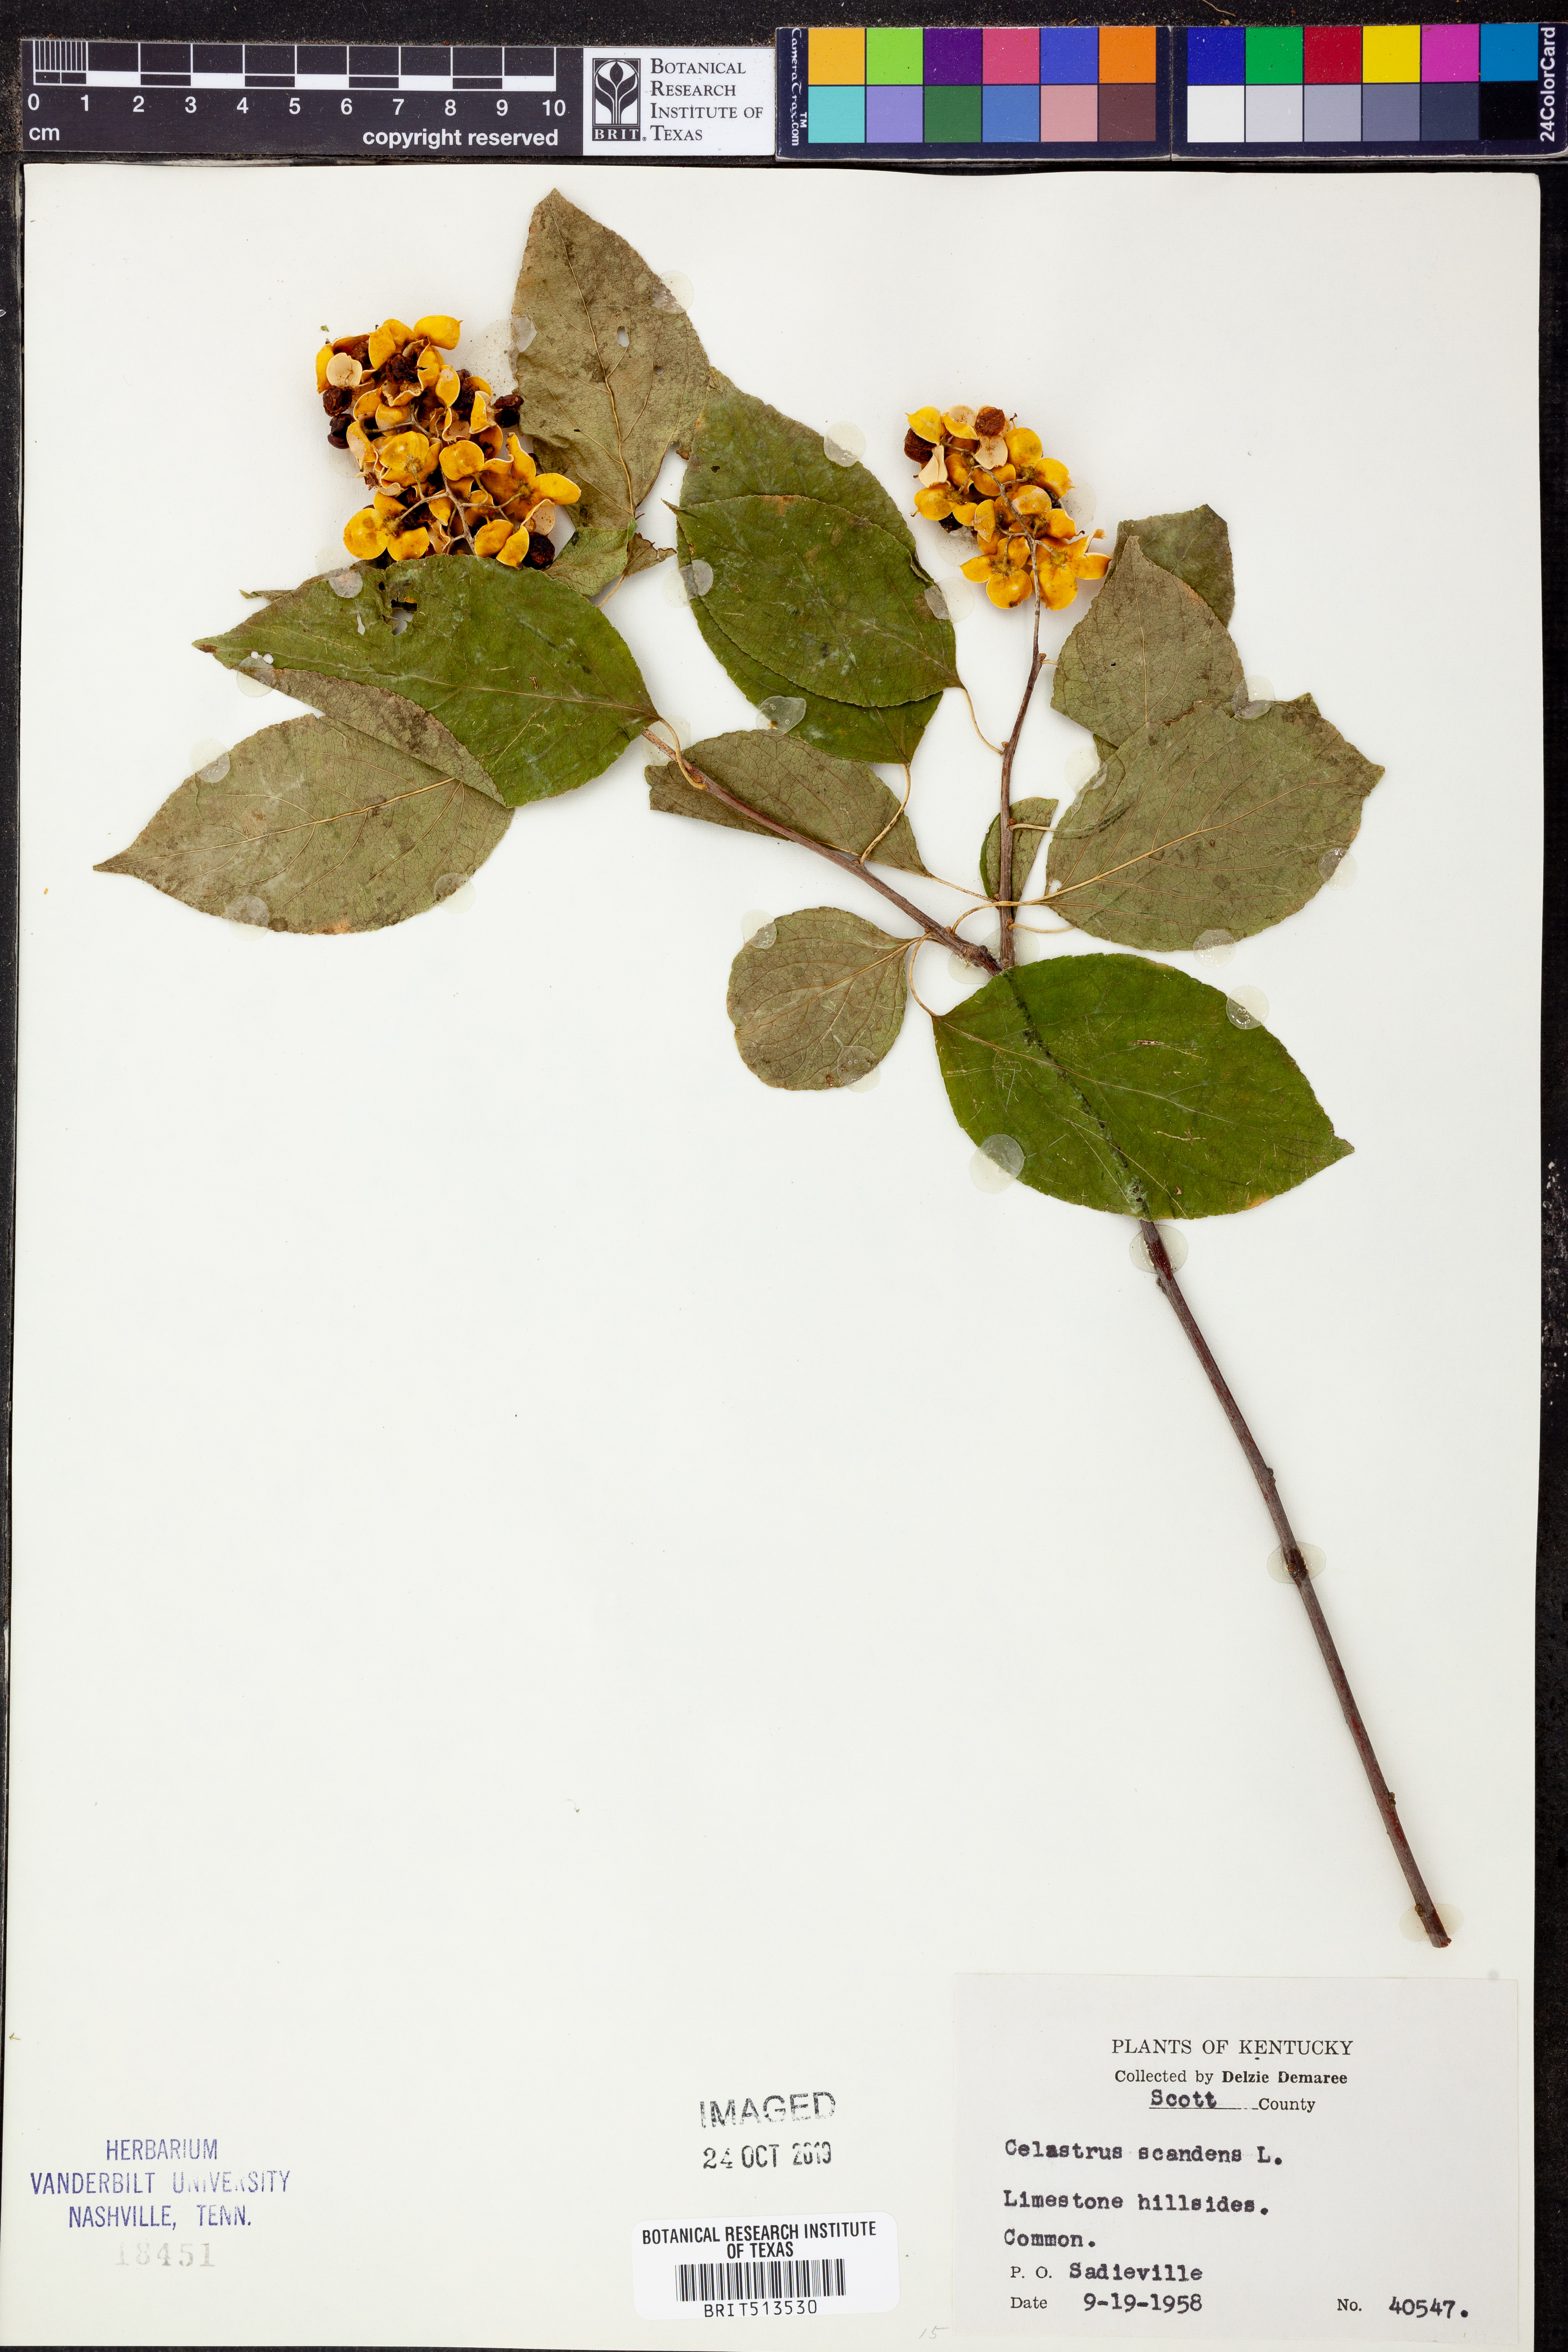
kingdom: Plantae
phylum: Tracheophyta
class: Magnoliopsida
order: Celastrales
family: Celastraceae
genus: Celastrus
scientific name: Celastrus scandens
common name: American bittersweet
